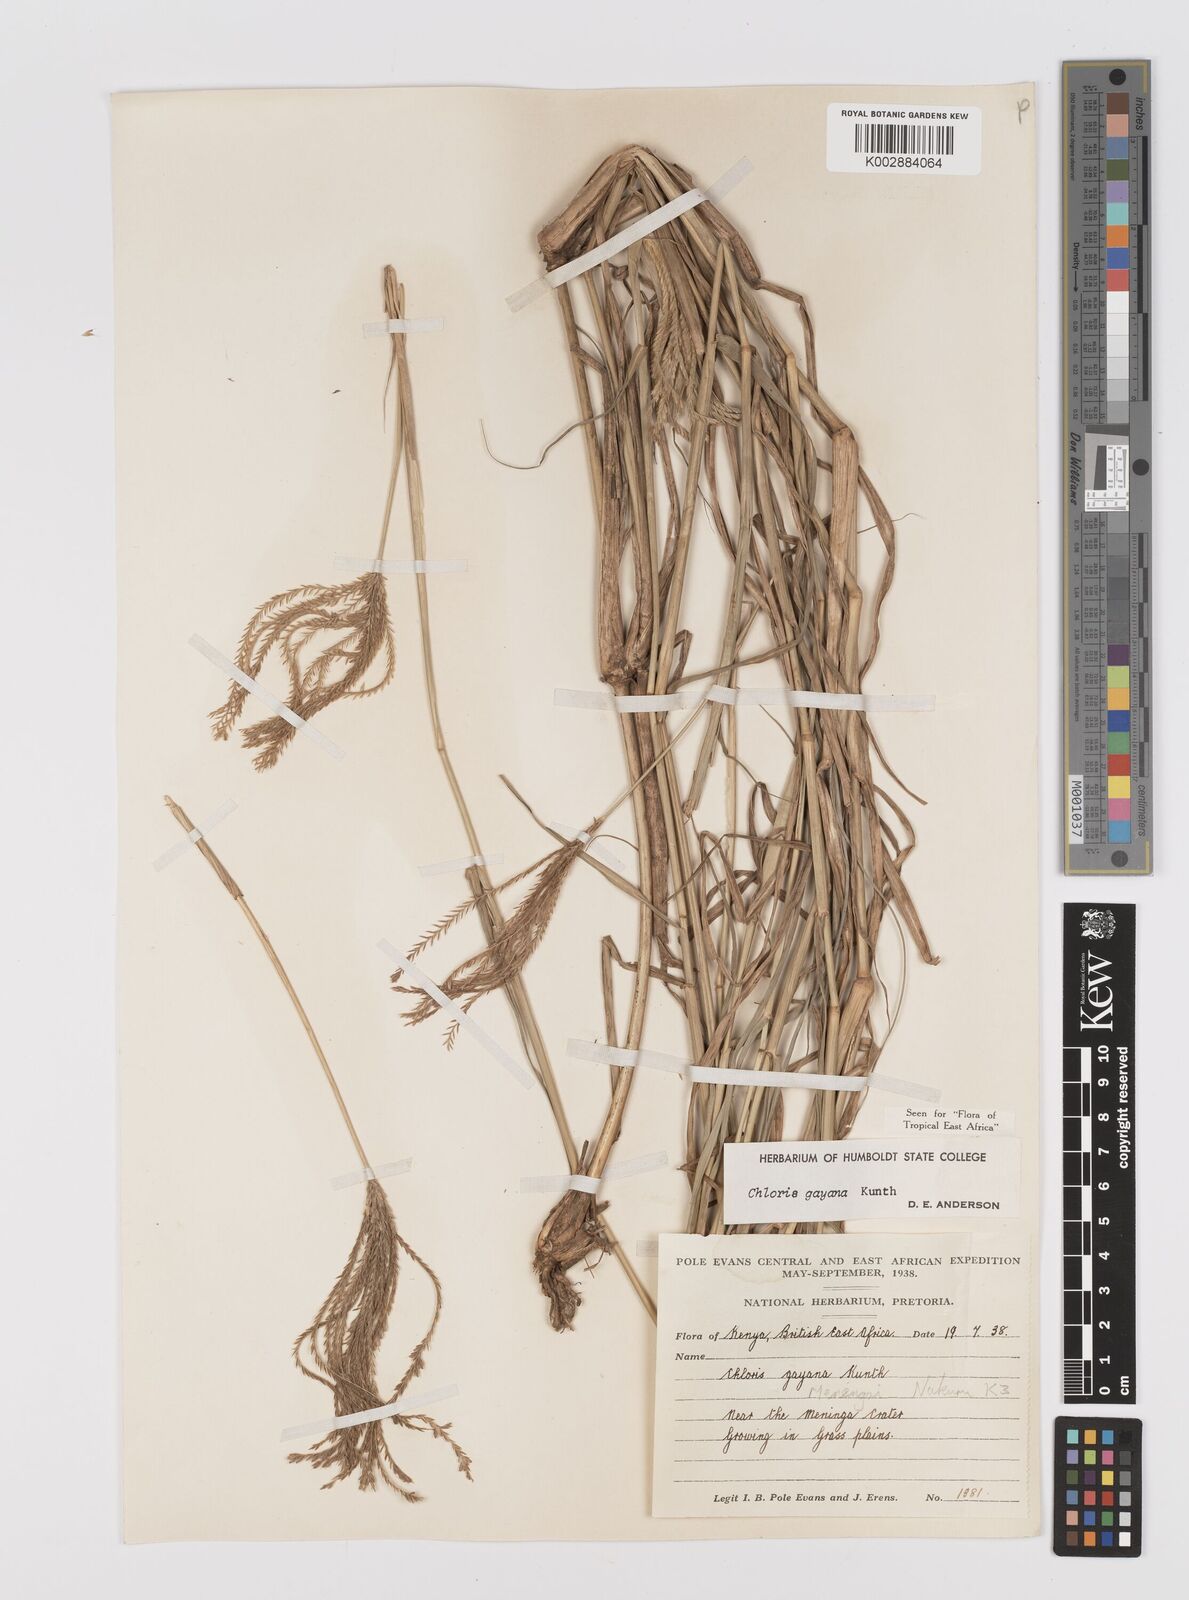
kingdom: Plantae
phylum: Tracheophyta
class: Liliopsida
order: Poales
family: Poaceae
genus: Chloris
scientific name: Chloris gayana
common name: Rhodes grass
